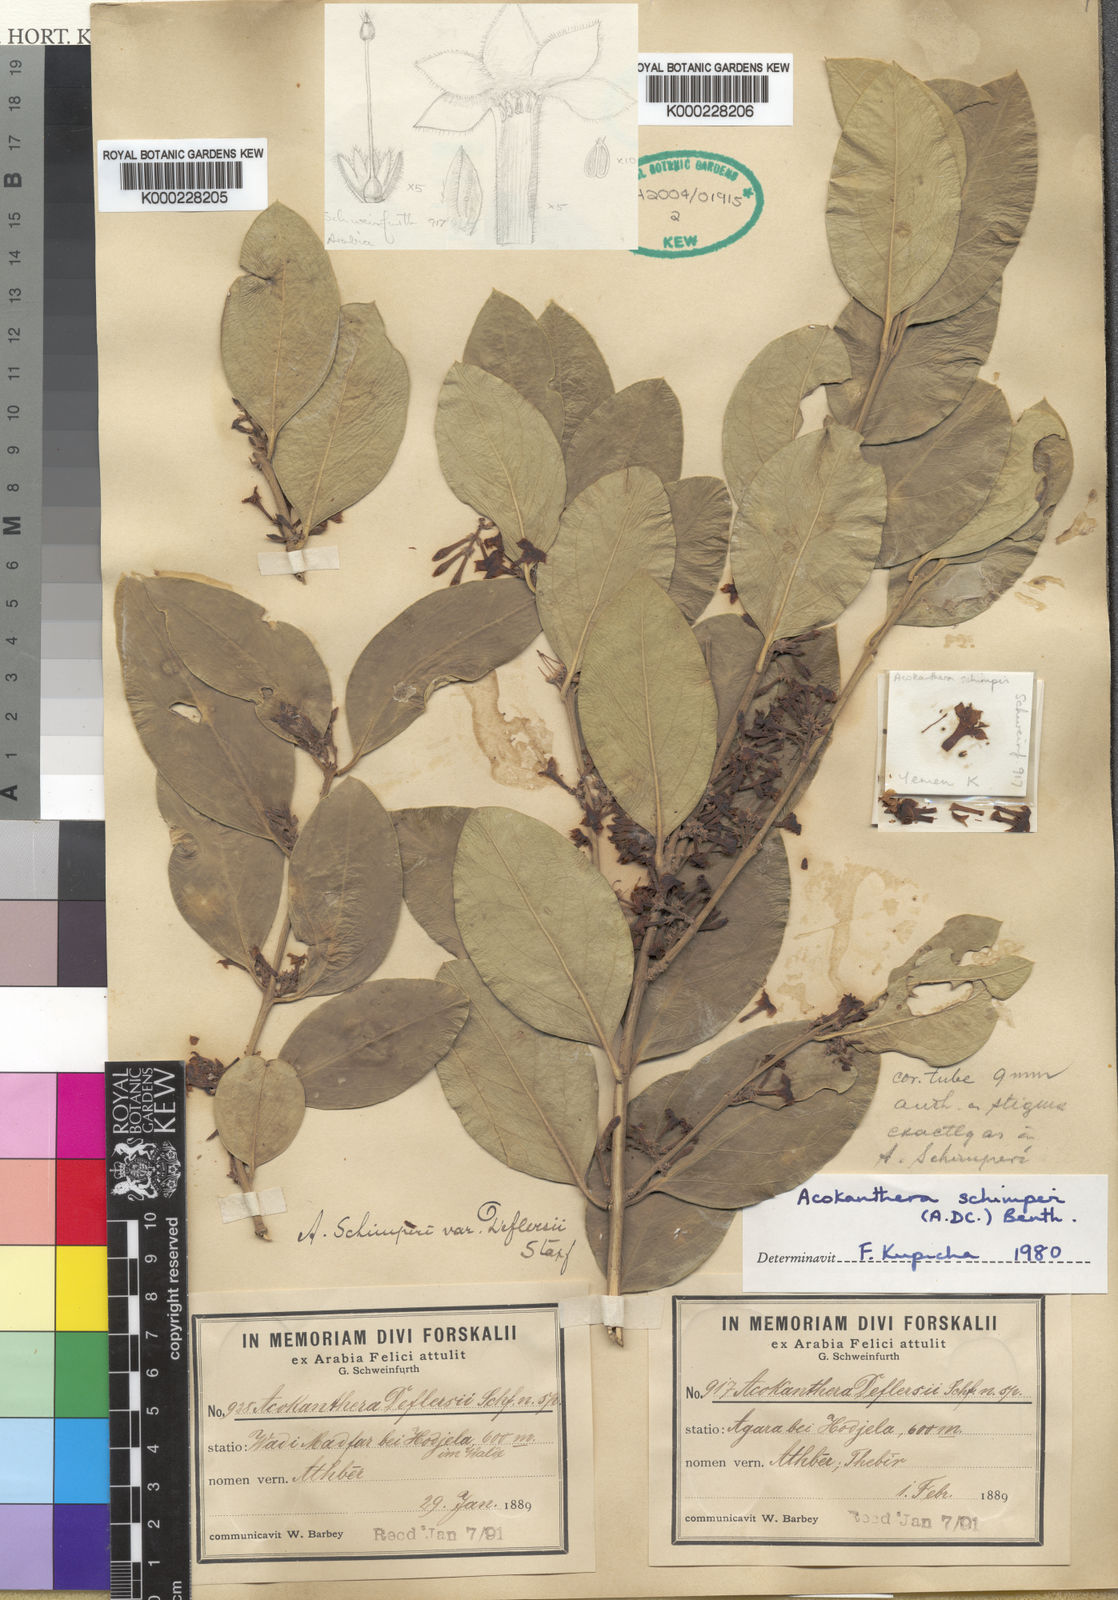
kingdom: Plantae
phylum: Tracheophyta
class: Magnoliopsida
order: Gentianales
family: Apocynaceae
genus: Acokanthera
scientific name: Acokanthera
